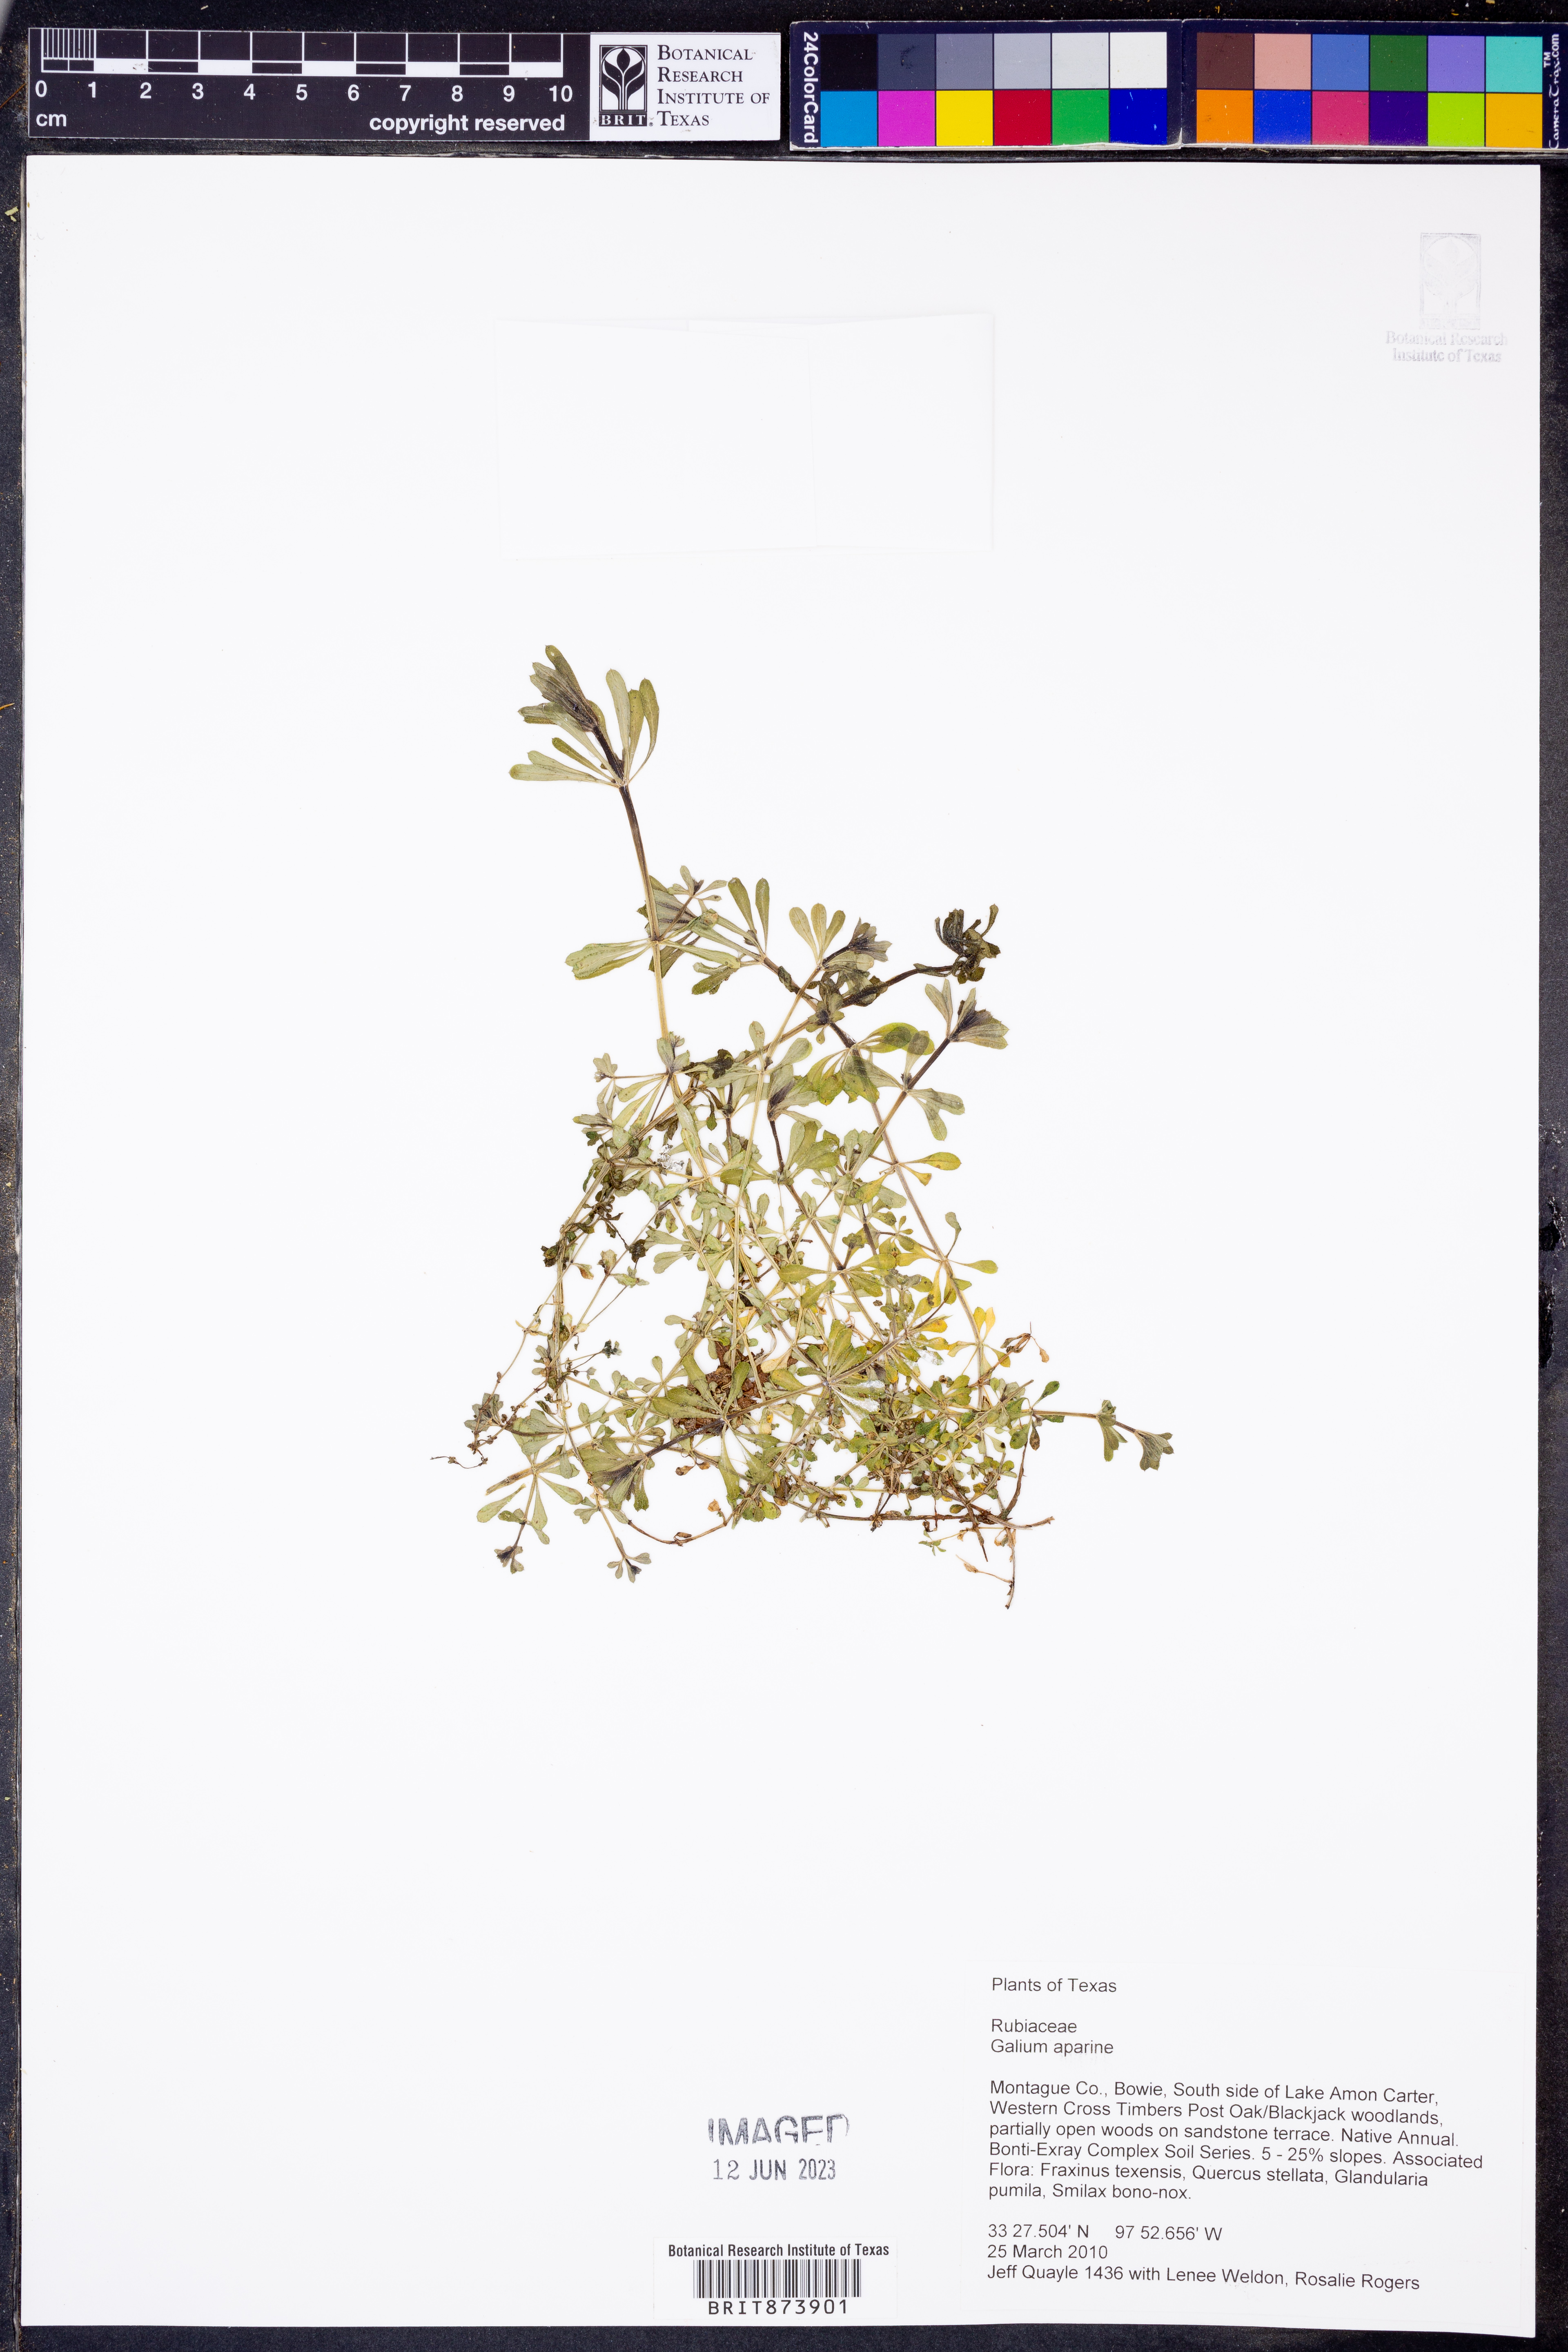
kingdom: Plantae
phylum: Tracheophyta
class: Magnoliopsida
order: Gentianales
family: Rubiaceae
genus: Galium
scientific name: Galium aparine
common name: Cleavers
